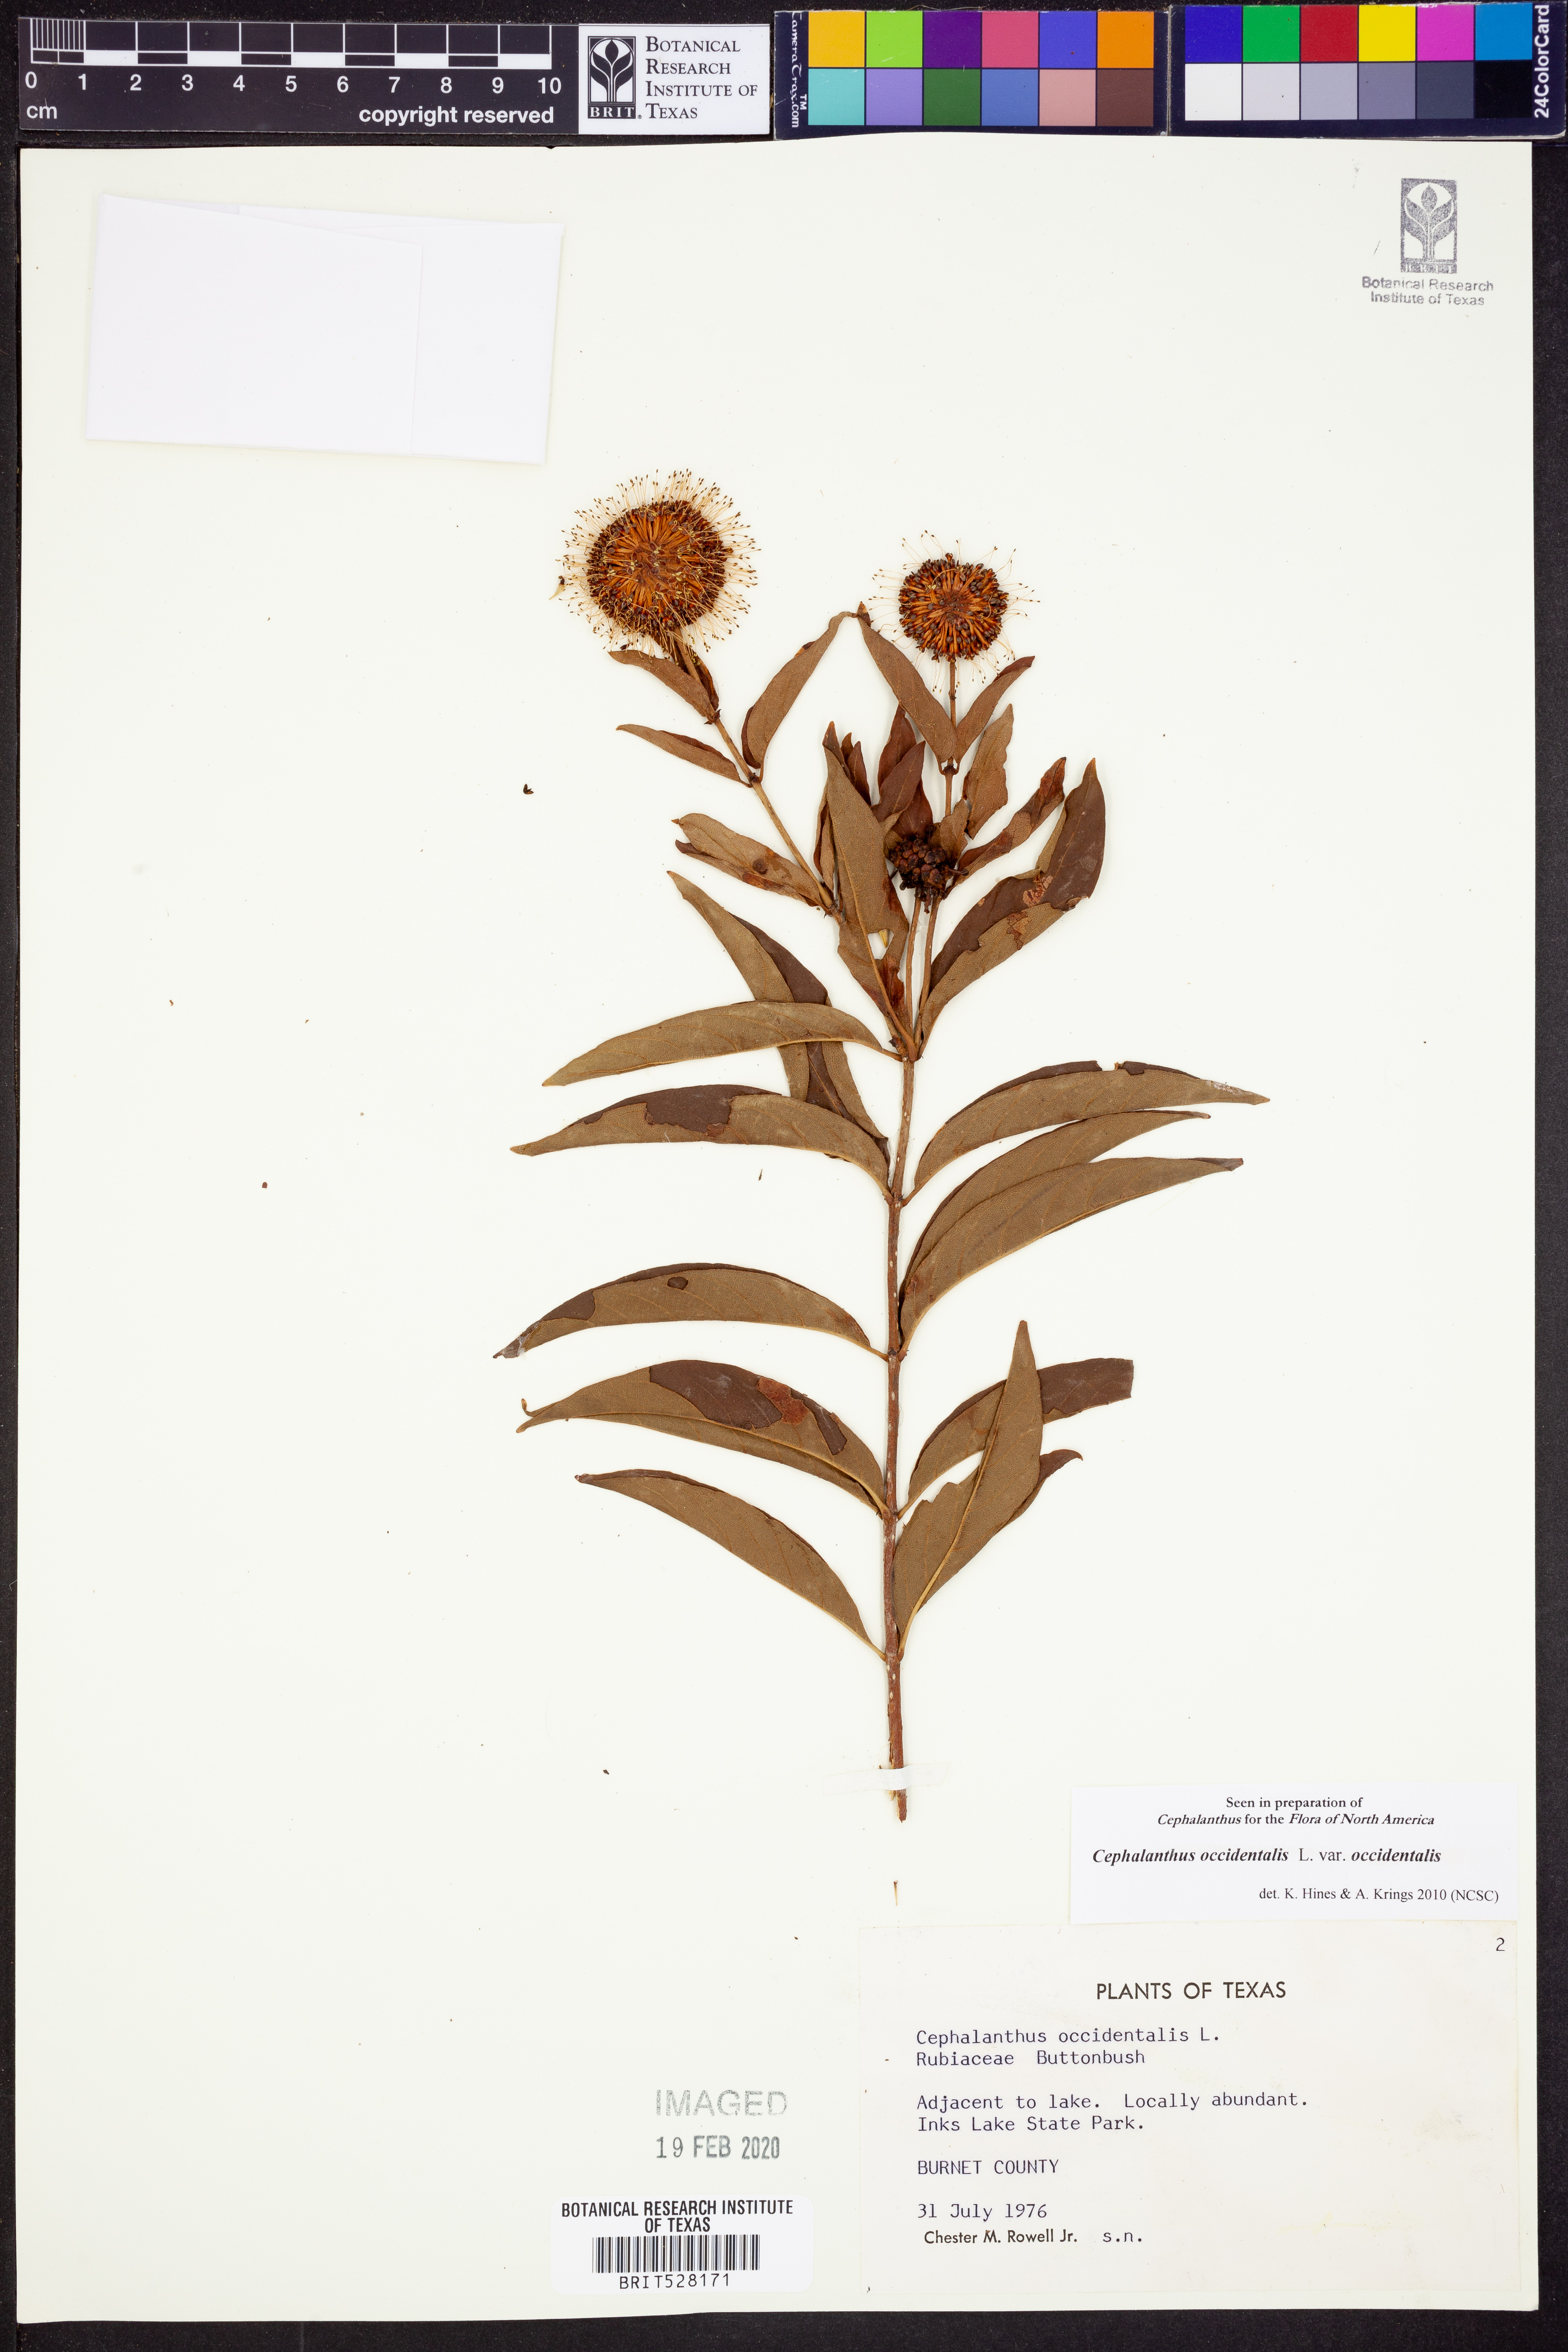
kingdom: Plantae
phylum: Tracheophyta
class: Magnoliopsida
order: Gentianales
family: Rubiaceae
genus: Cephalanthus
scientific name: Cephalanthus occidentalis
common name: Button-willow
